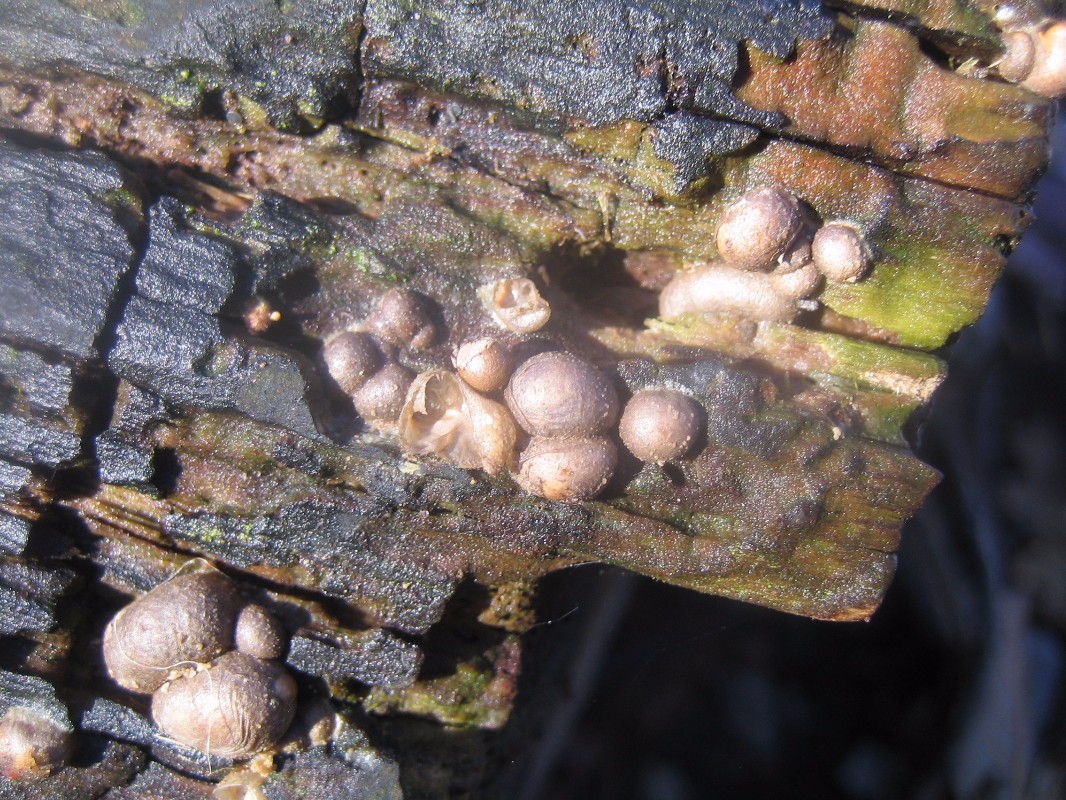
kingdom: Protozoa
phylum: Mycetozoa
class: Myxomycetes
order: Cribrariales
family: Tubiferaceae
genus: Lycogala
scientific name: Lycogala epidendrum
